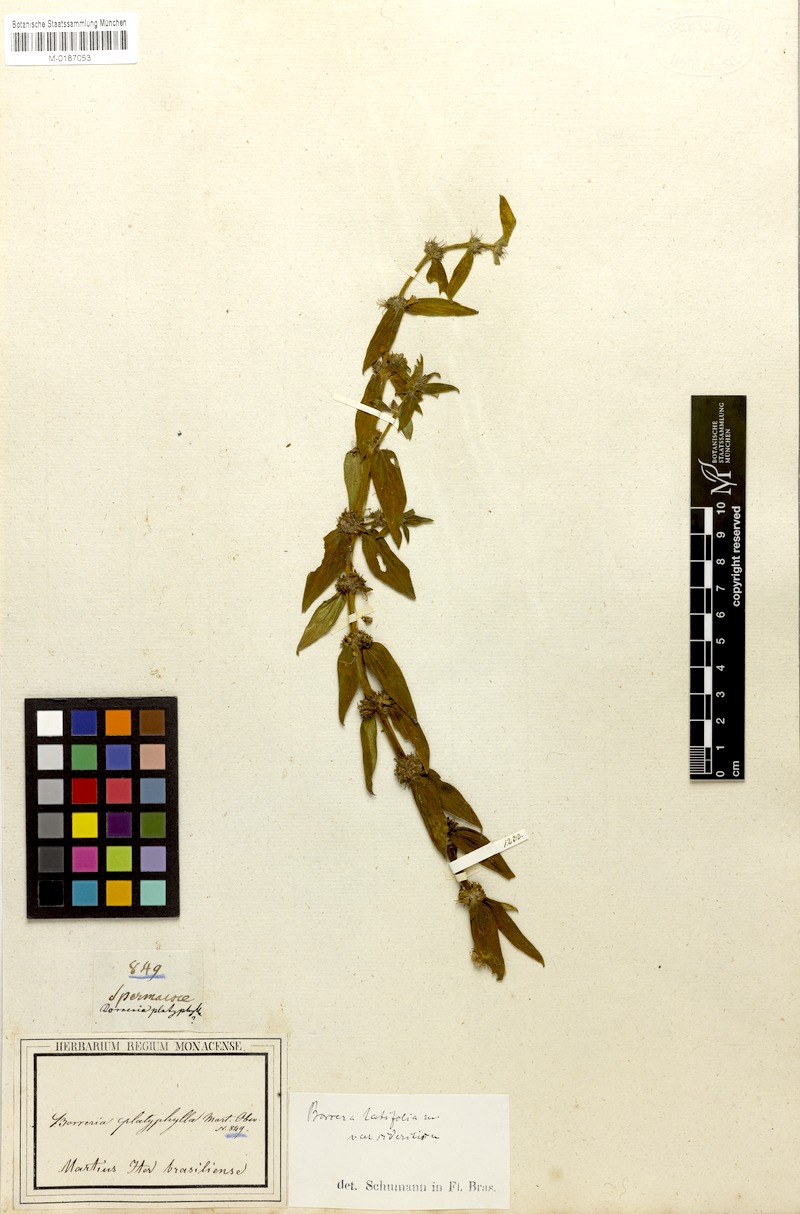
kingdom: Plantae
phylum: Tracheophyta
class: Magnoliopsida
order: Gentianales
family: Rubiaceae
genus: Spermacoce
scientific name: Spermacoce latifolia
